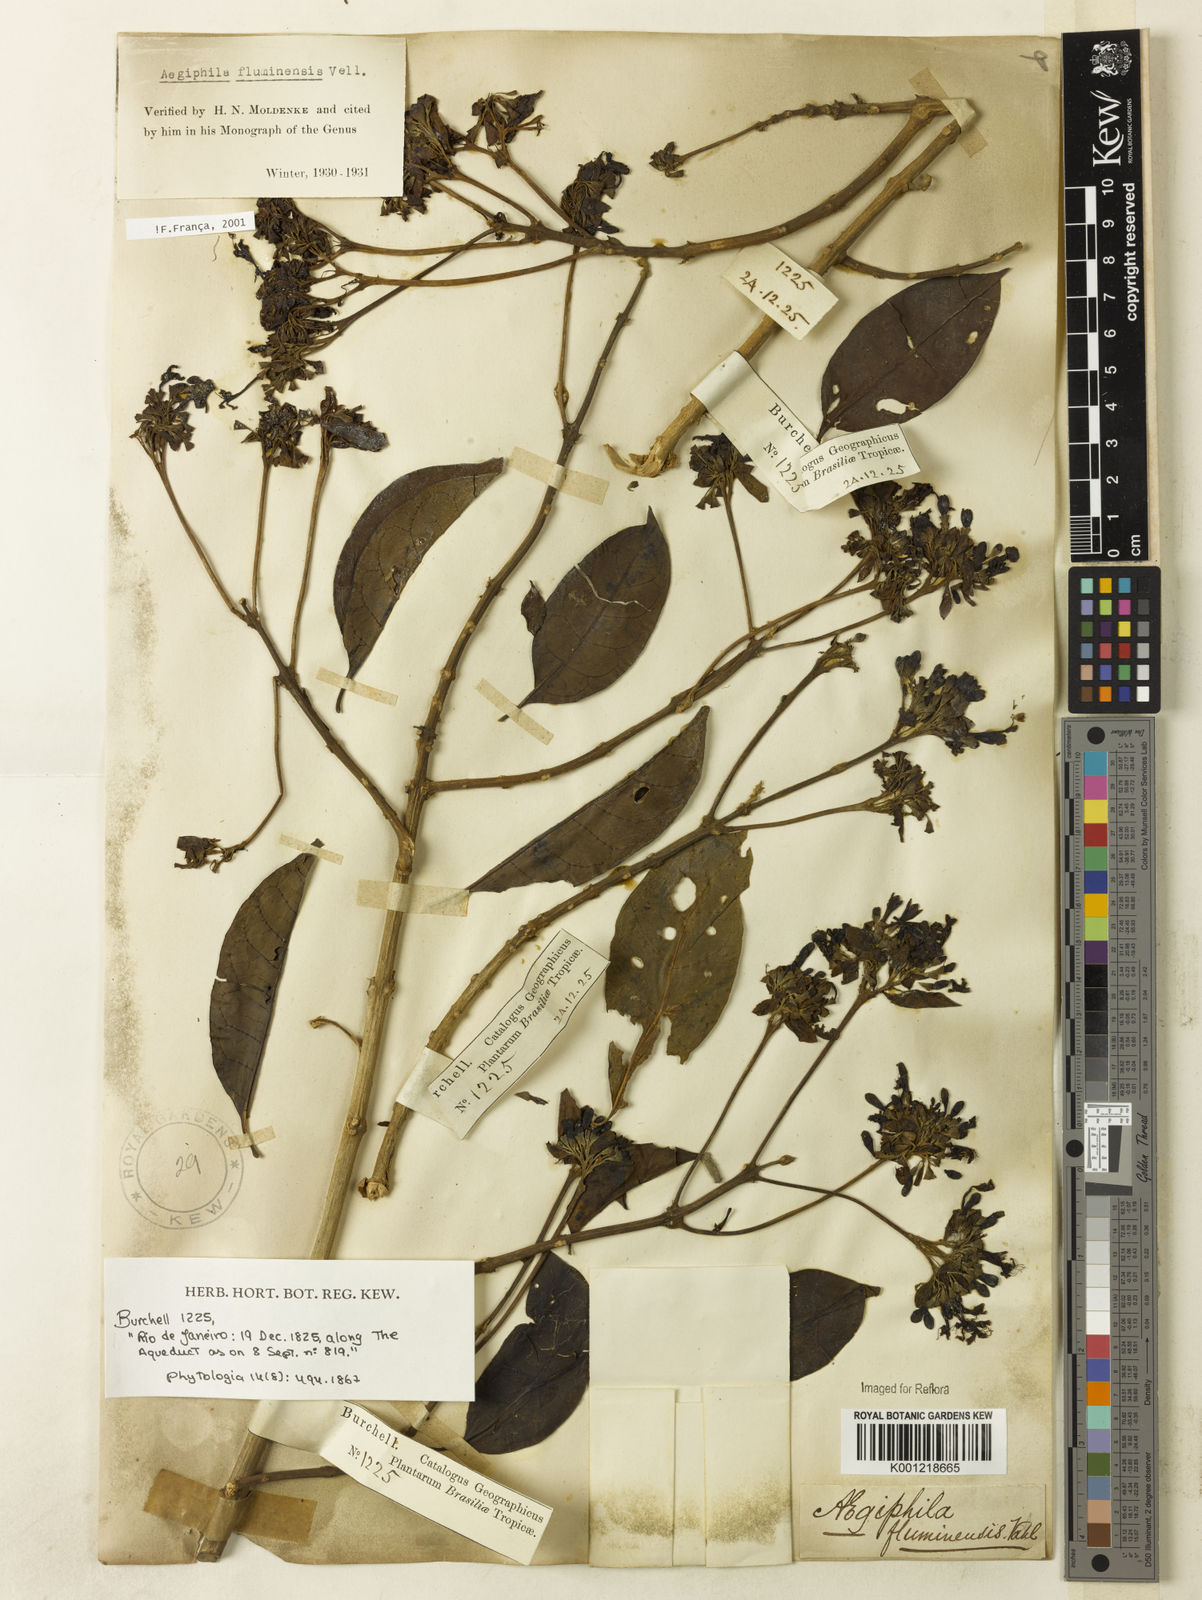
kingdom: Plantae
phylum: Tracheophyta
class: Magnoliopsida
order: Lamiales
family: Lamiaceae
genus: Aegiphila
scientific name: Aegiphila fluminensis
